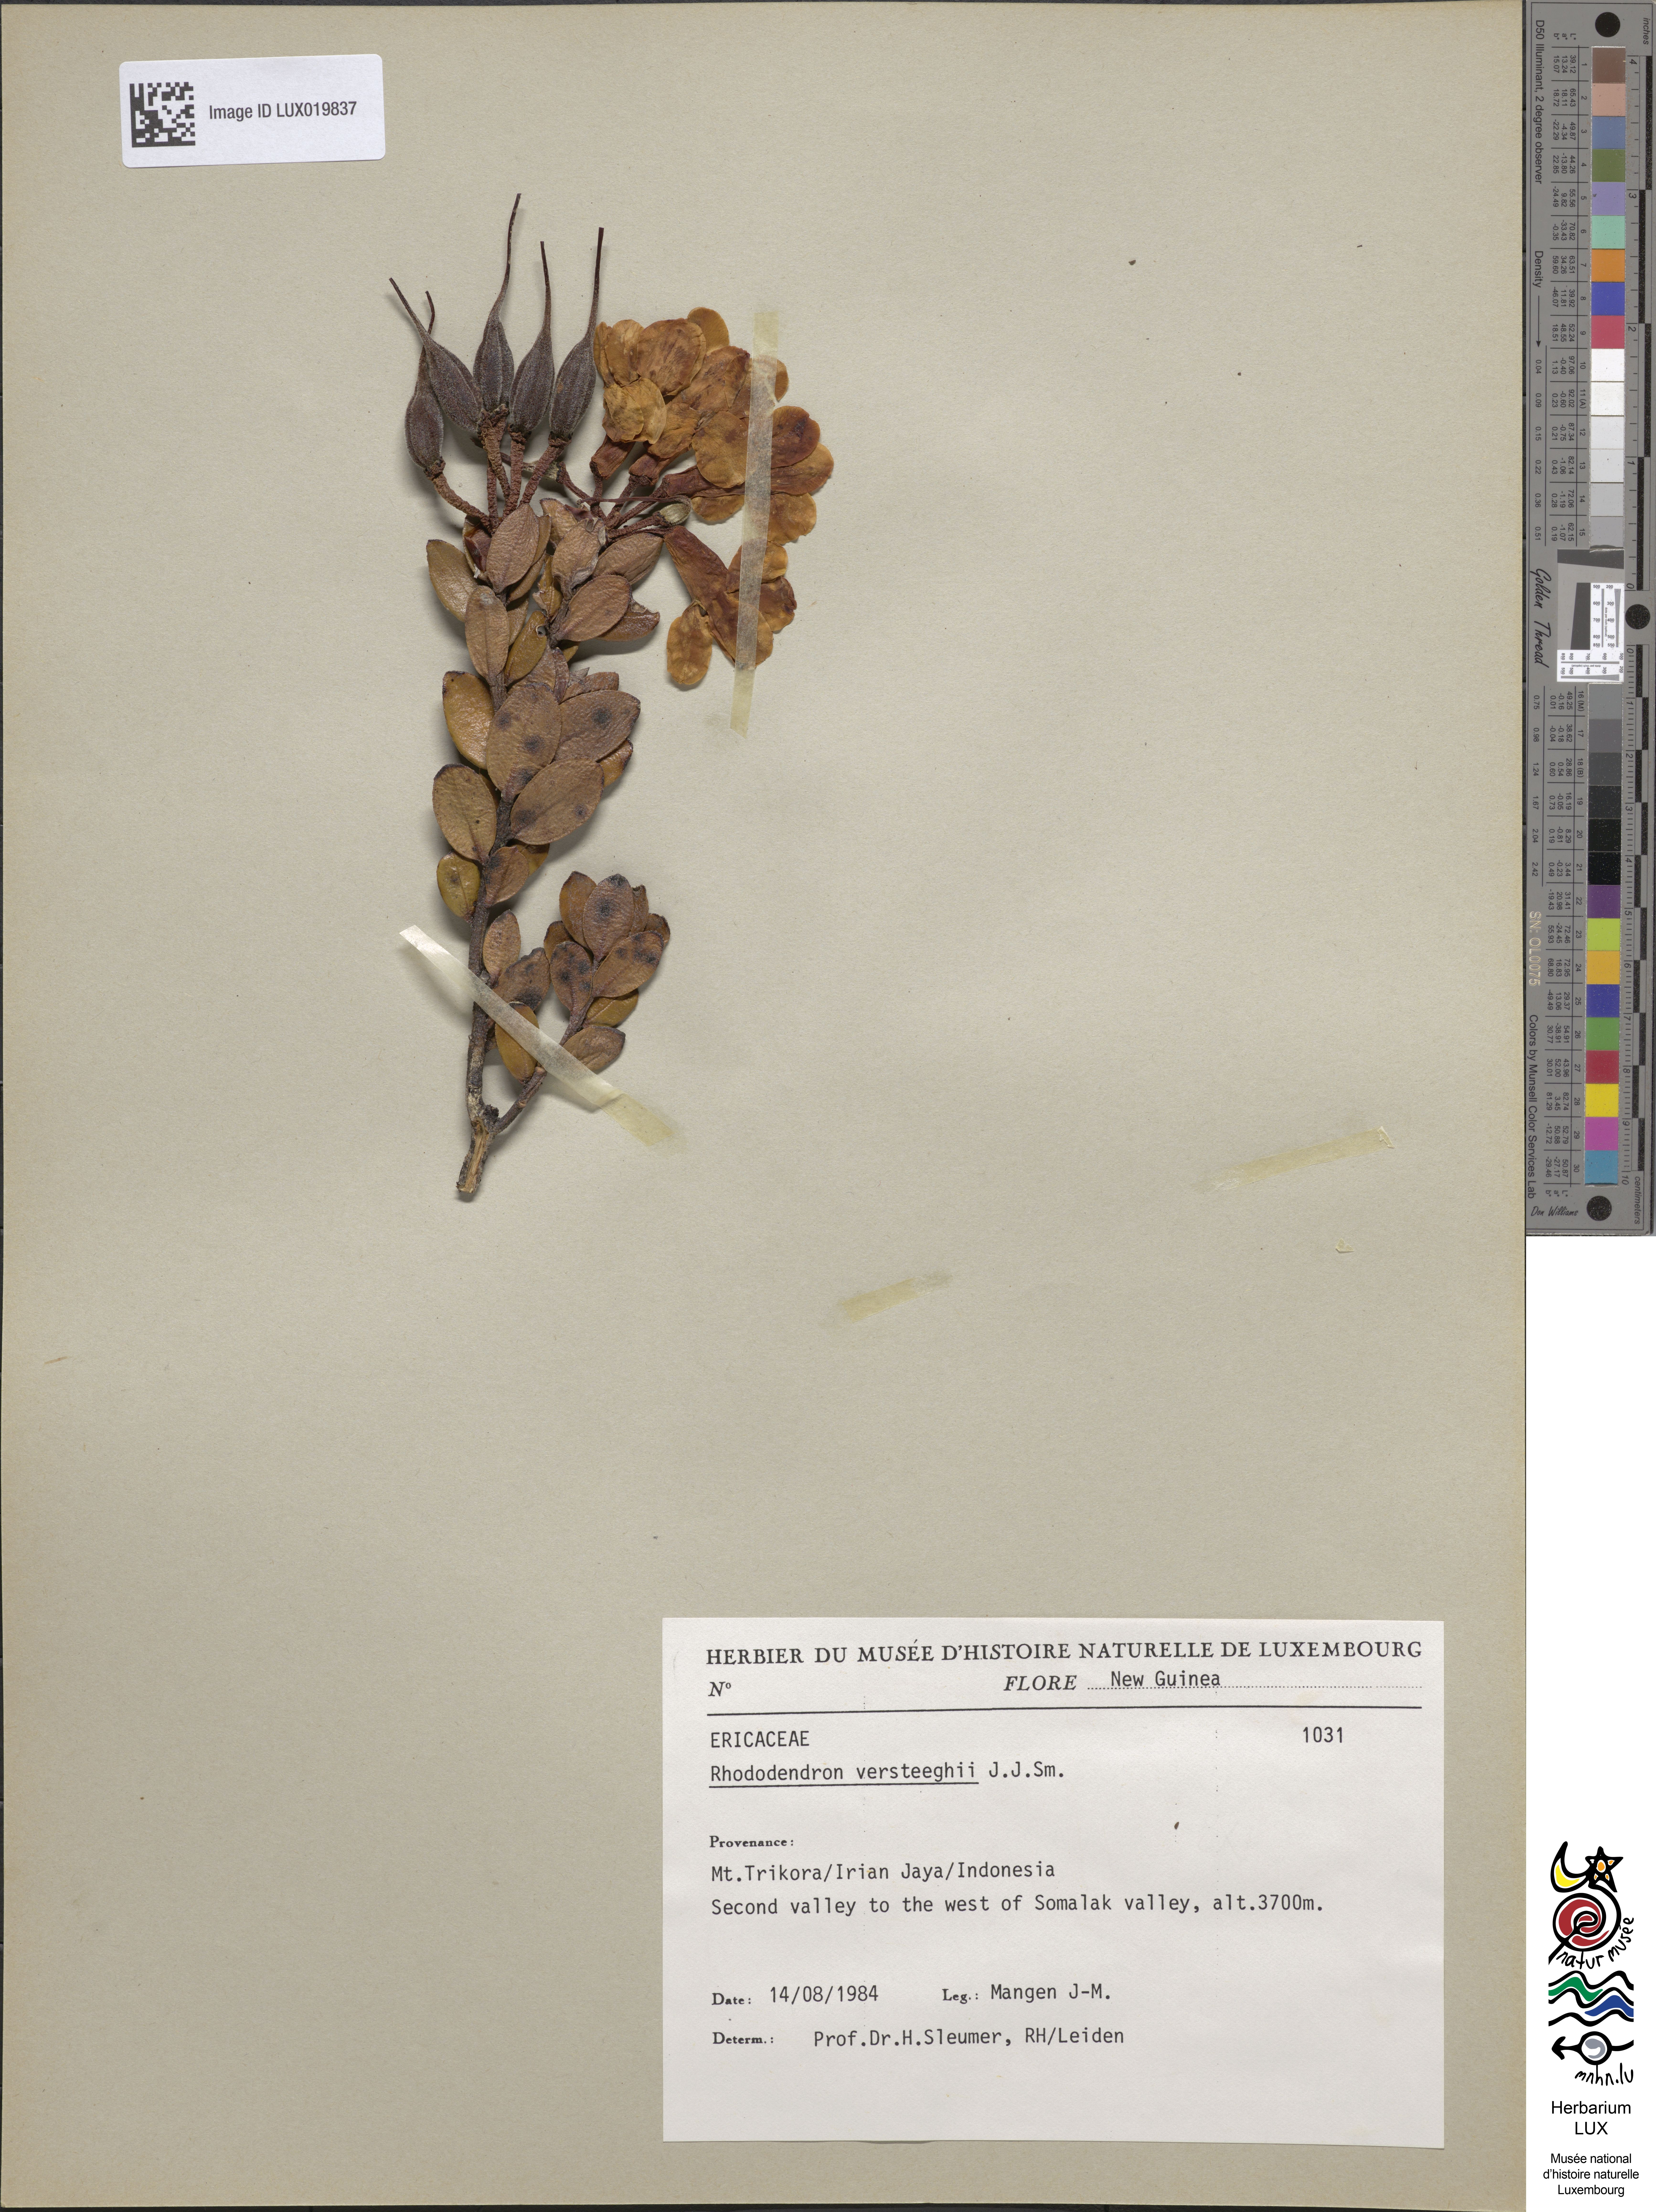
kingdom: Plantae
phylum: Tracheophyta
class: Magnoliopsida
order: Ericales
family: Ericaceae
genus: Rhododendron
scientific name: Rhododendron versteegii
